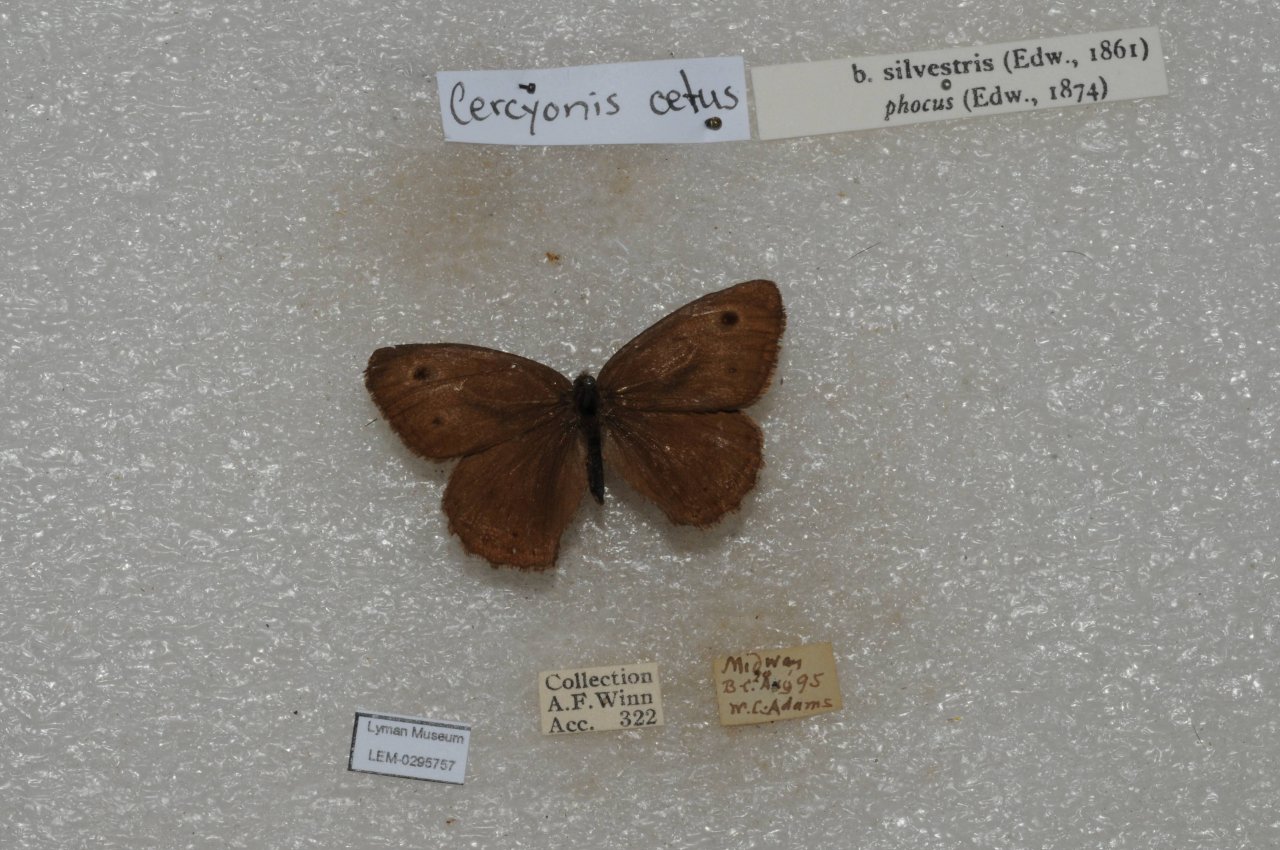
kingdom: Animalia
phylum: Arthropoda
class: Insecta
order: Lepidoptera
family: Nymphalidae
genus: Cercyonis
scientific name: Cercyonis oetus
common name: Small Wood-Nymph
